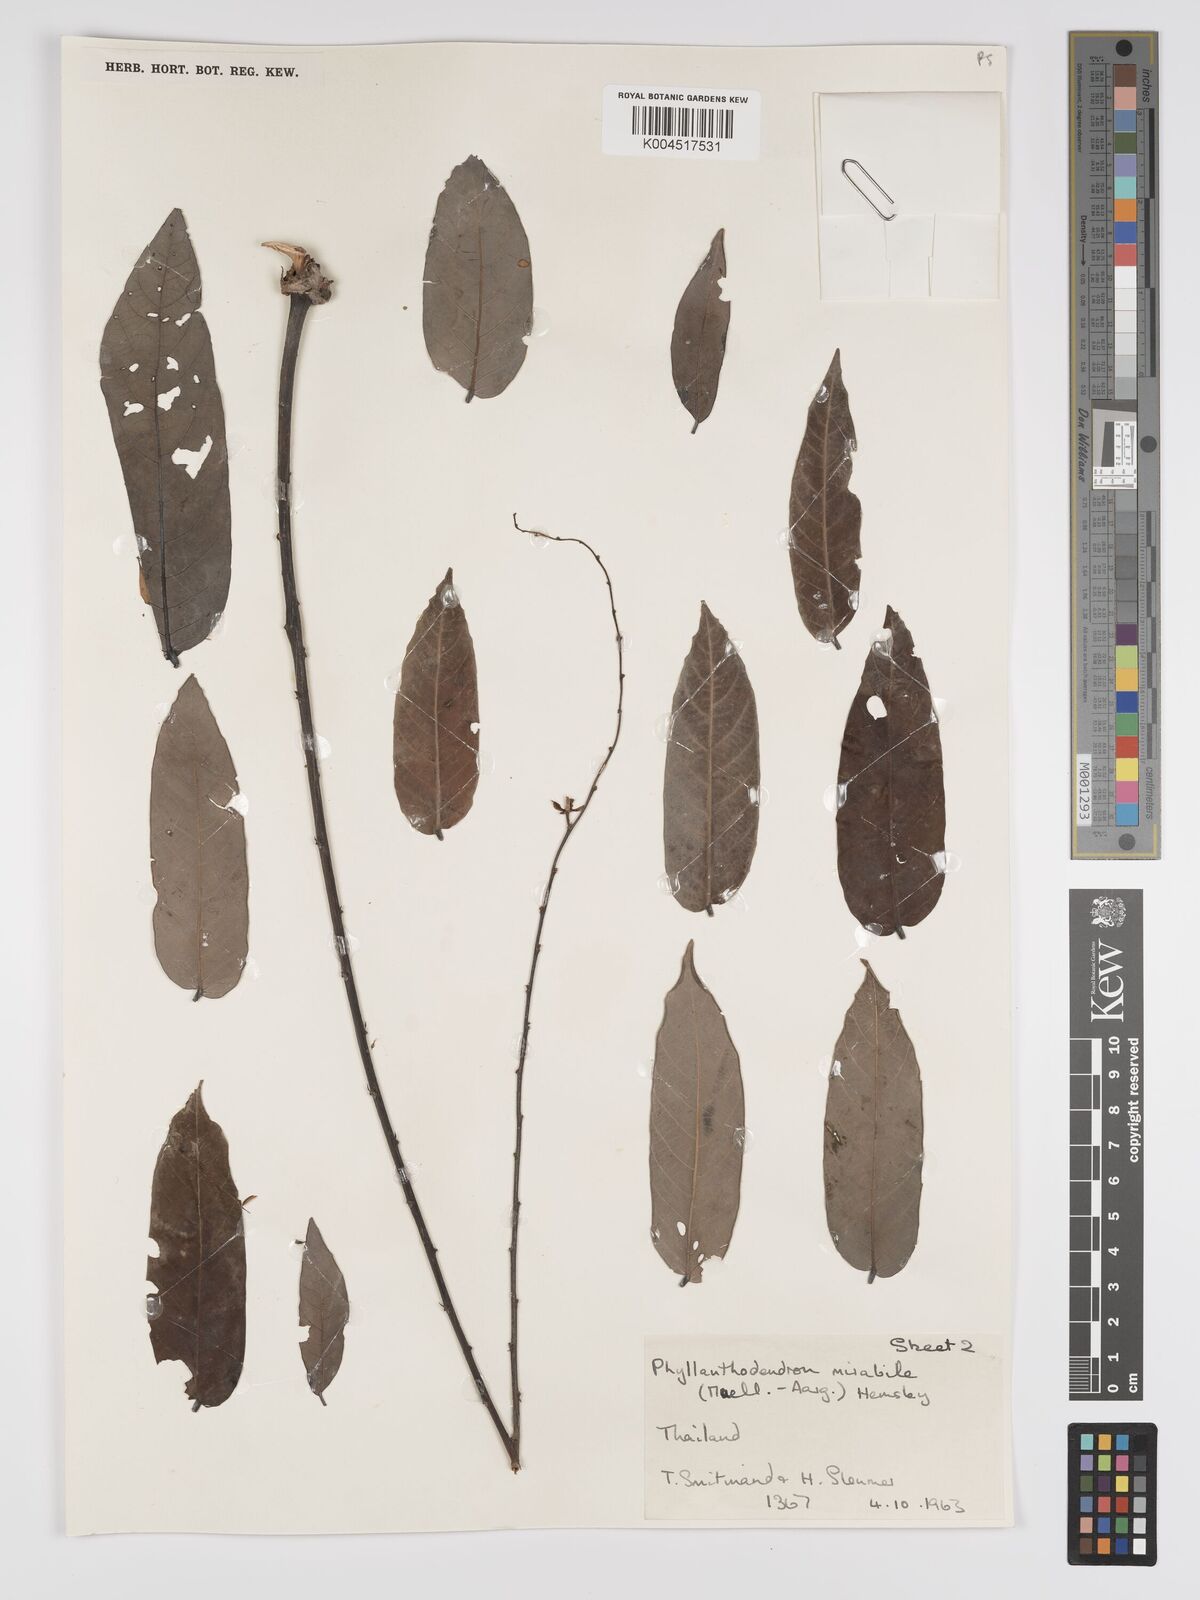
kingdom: Plantae
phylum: Tracheophyta
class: Magnoliopsida
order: Malpighiales
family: Phyllanthaceae
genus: Phyllanthus
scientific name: Phyllanthus mirabilis
